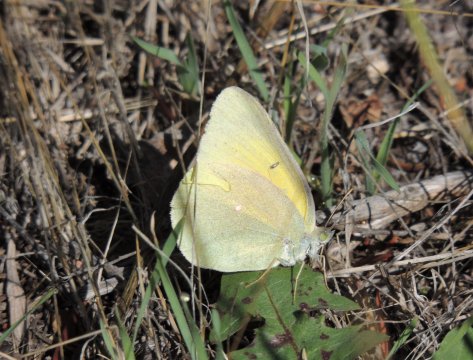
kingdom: Animalia
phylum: Arthropoda
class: Insecta
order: Lepidoptera
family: Pieridae
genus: Colias
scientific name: Colias alexandra
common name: Queen Alexandra's Sulphur
